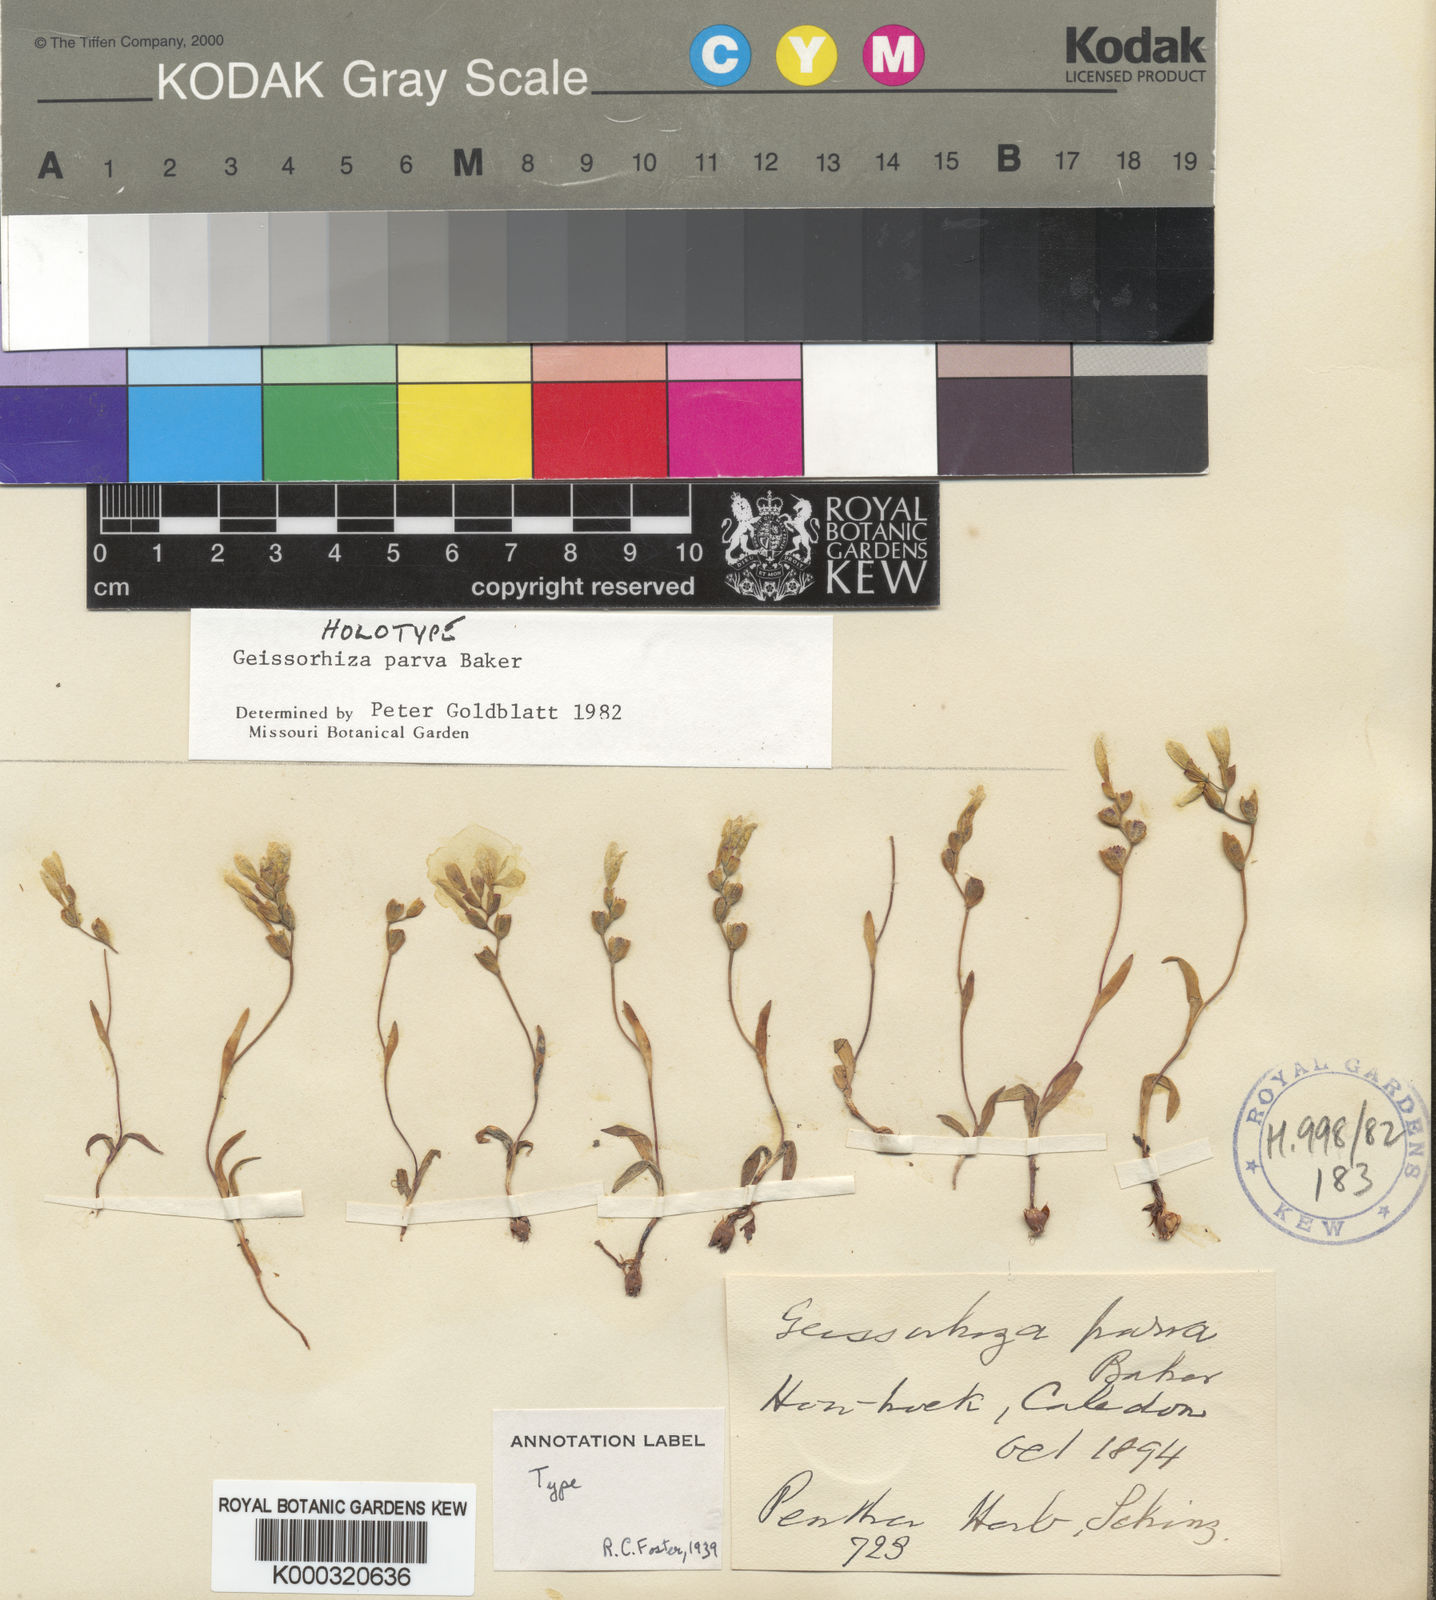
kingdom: Plantae
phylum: Tracheophyta
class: Liliopsida
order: Asparagales
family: Iridaceae
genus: Geissorhiza
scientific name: Geissorhiza parva
